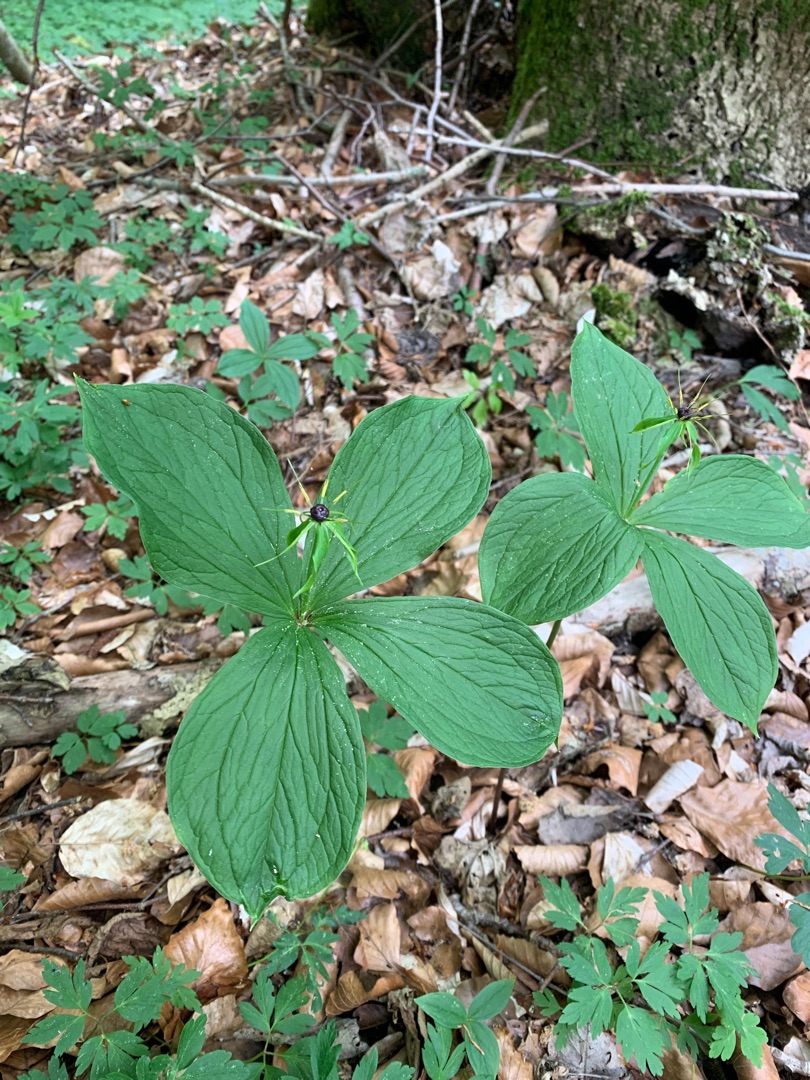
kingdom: Plantae
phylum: Tracheophyta
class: Liliopsida
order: Liliales
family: Melanthiaceae
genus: Paris
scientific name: Paris quadrifolia
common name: Firblad
